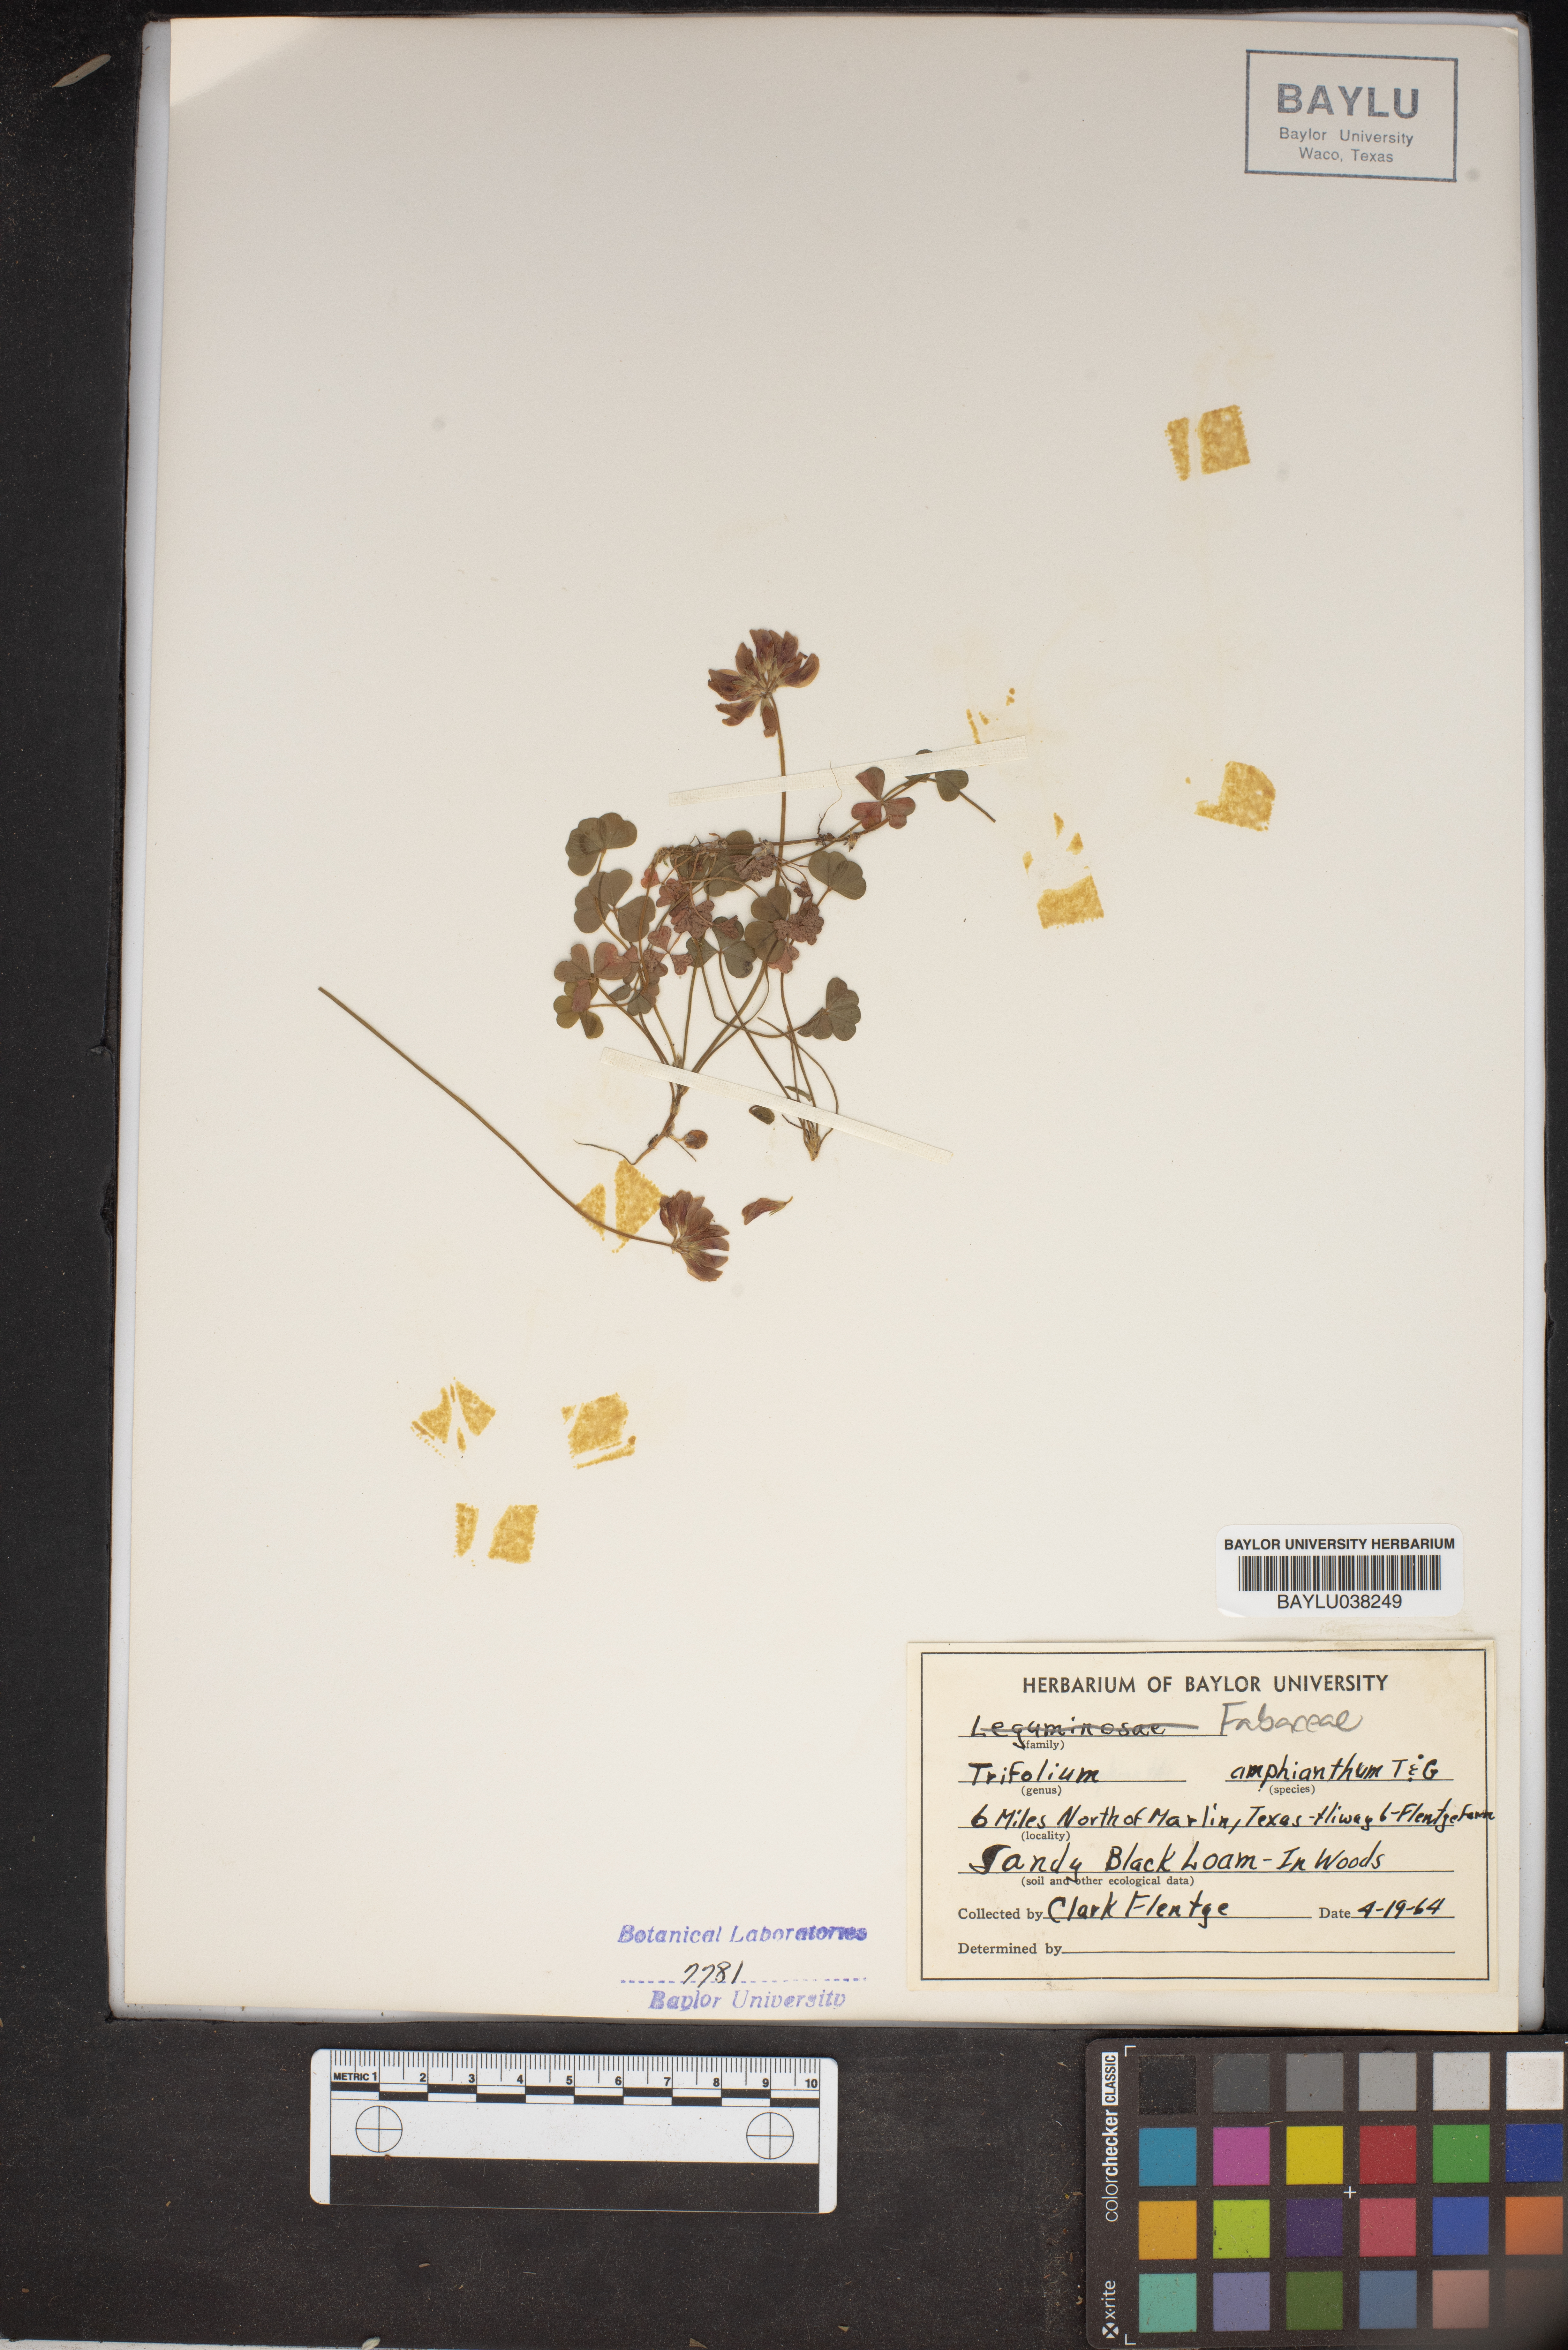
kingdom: Plantae
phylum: Tracheophyta
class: Magnoliopsida
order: Fabales
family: Fabaceae
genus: Trifolium
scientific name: Trifolium amphianthum
